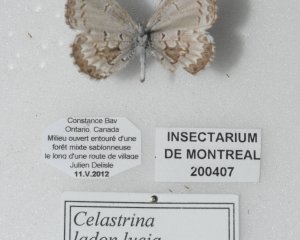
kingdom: Animalia
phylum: Arthropoda
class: Insecta
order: Lepidoptera
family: Lycaenidae
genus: Celastrina
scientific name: Celastrina lucia
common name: Northern Spring Azure
